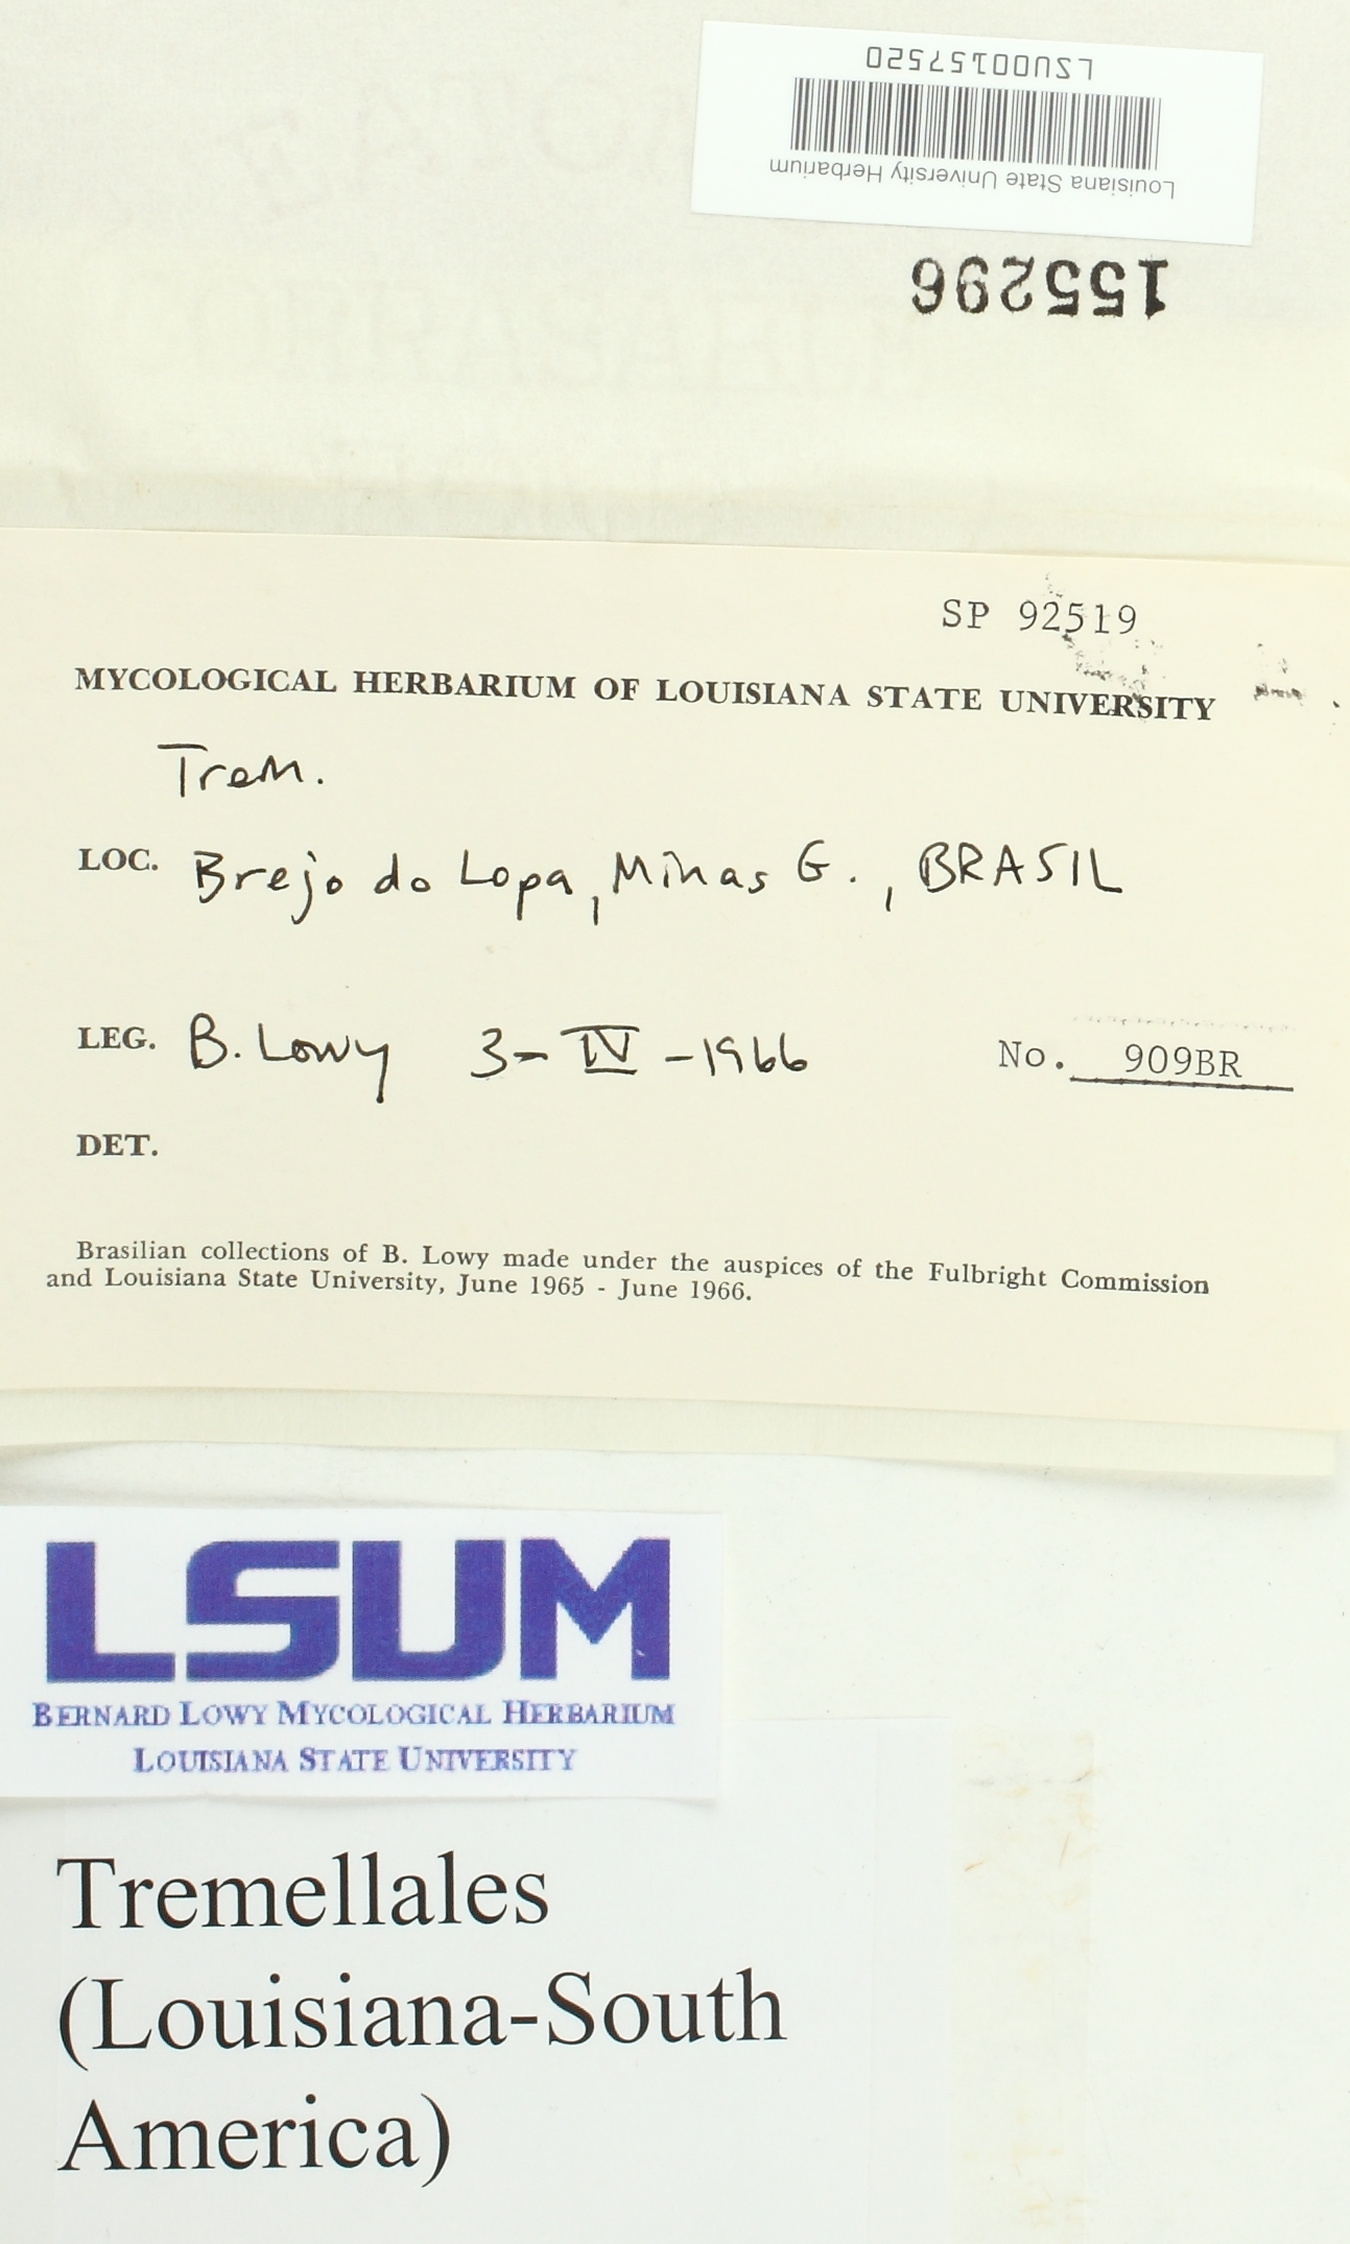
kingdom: Fungi
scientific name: Fungi
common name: Fungi
